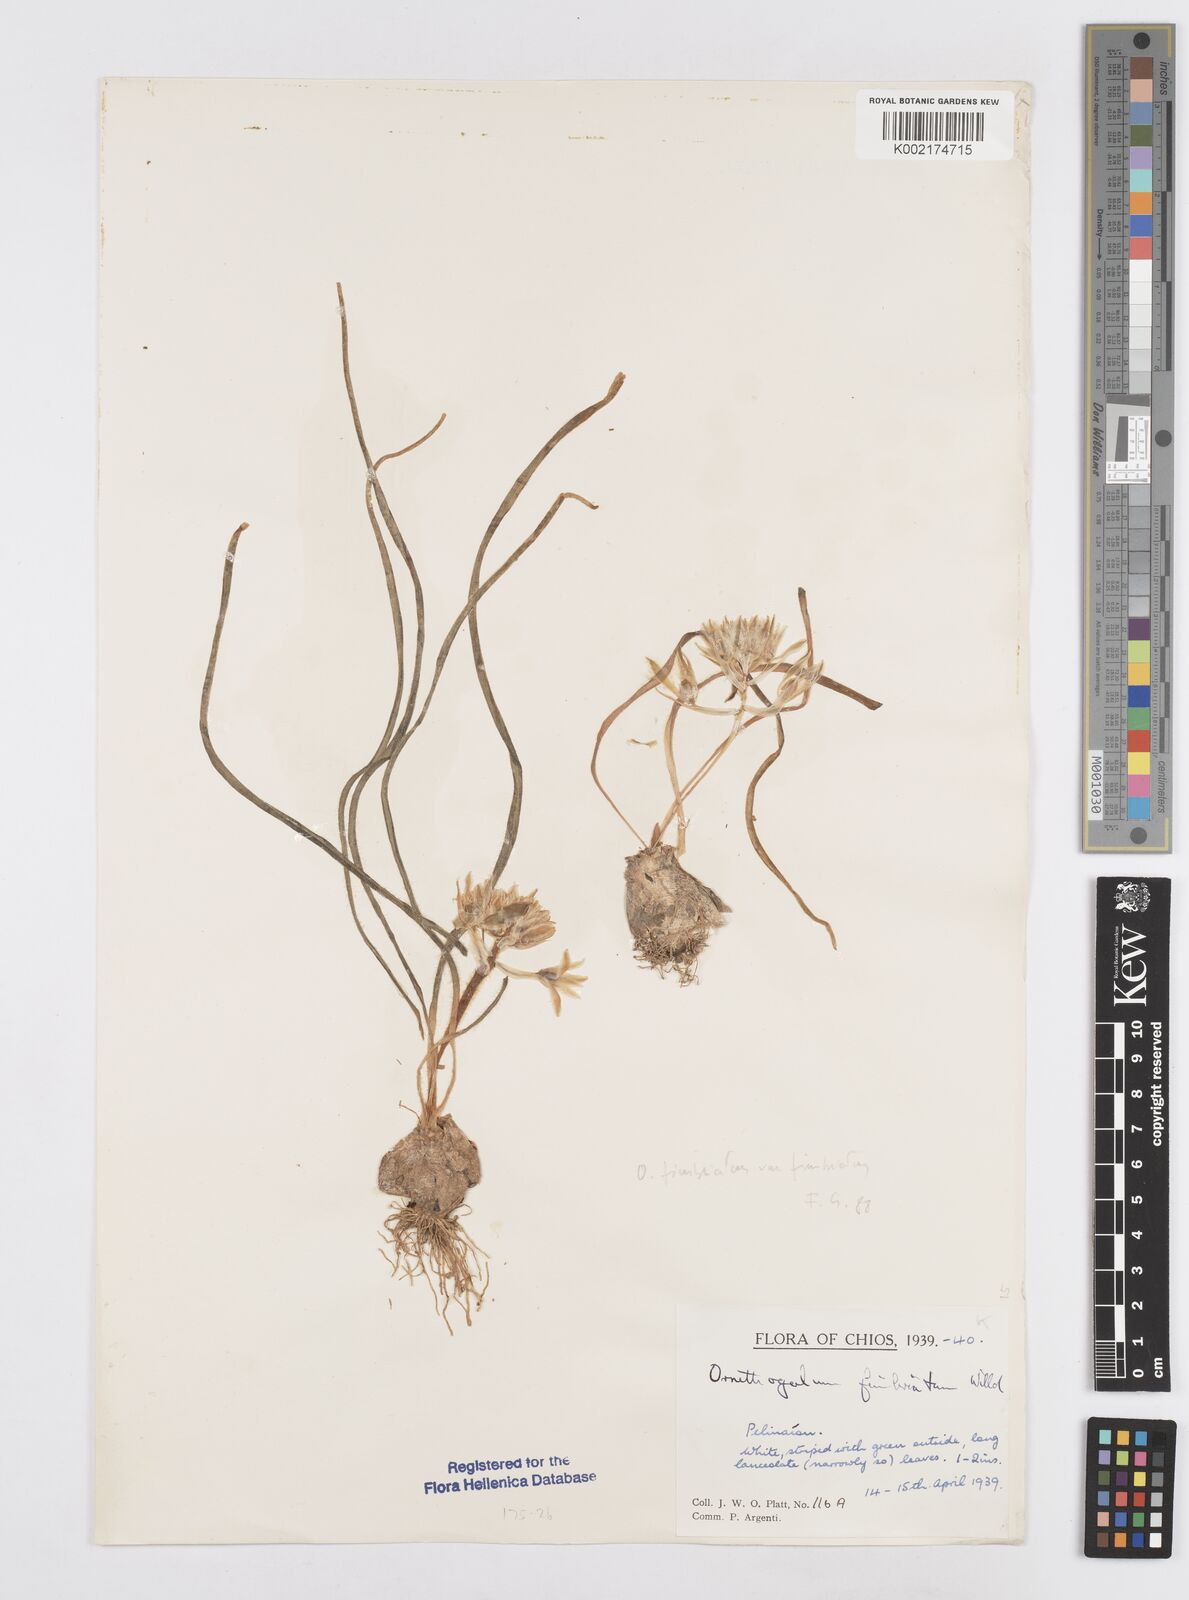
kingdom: Plantae
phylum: Tracheophyta
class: Liliopsida
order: Asparagales
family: Asparagaceae
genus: Ornithogalum
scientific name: Ornithogalum fimbriatum
